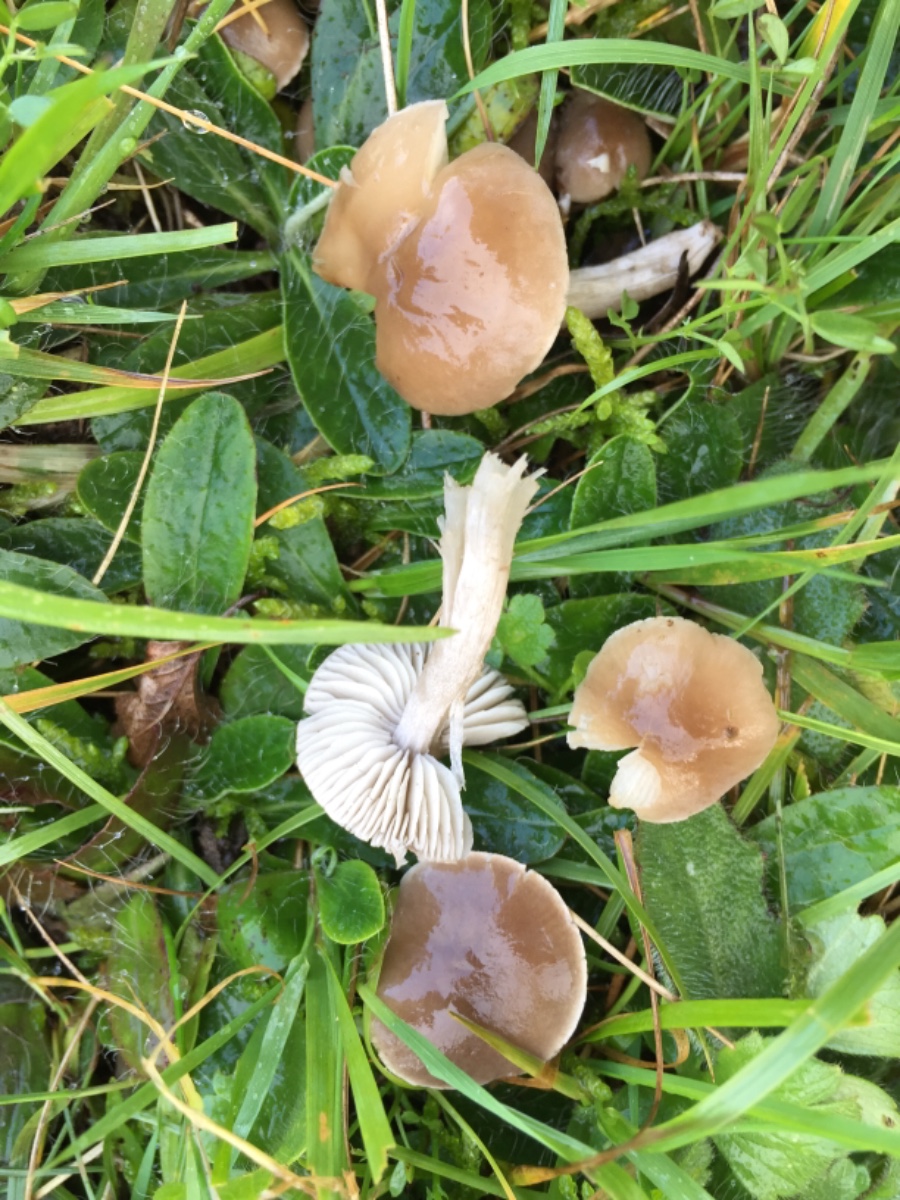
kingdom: Fungi
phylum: Basidiomycota
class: Agaricomycetes
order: Agaricales
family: Tricholomataceae
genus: Dermoloma
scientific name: Dermoloma cuneifolium
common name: eng-nonnehat
